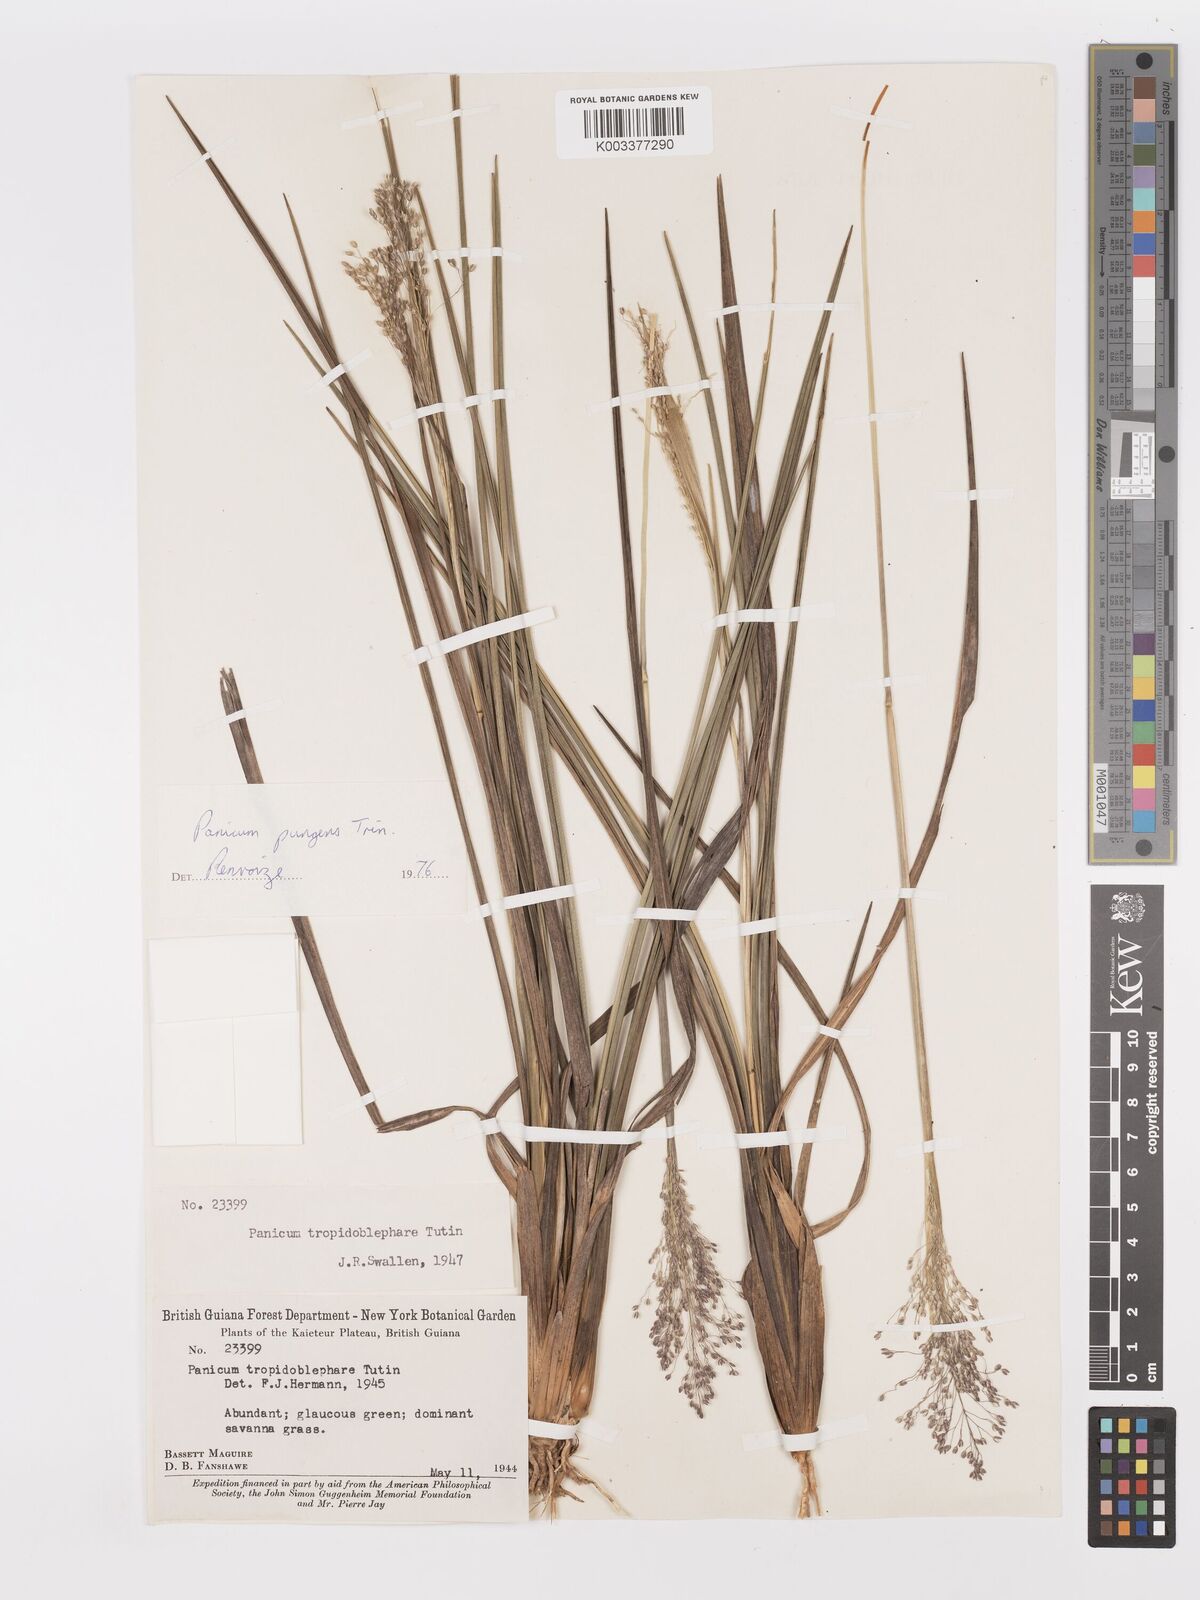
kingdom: Plantae
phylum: Tracheophyta
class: Liliopsida
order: Poales
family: Poaceae
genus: Apochloa
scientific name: Apochloa chnoodes
